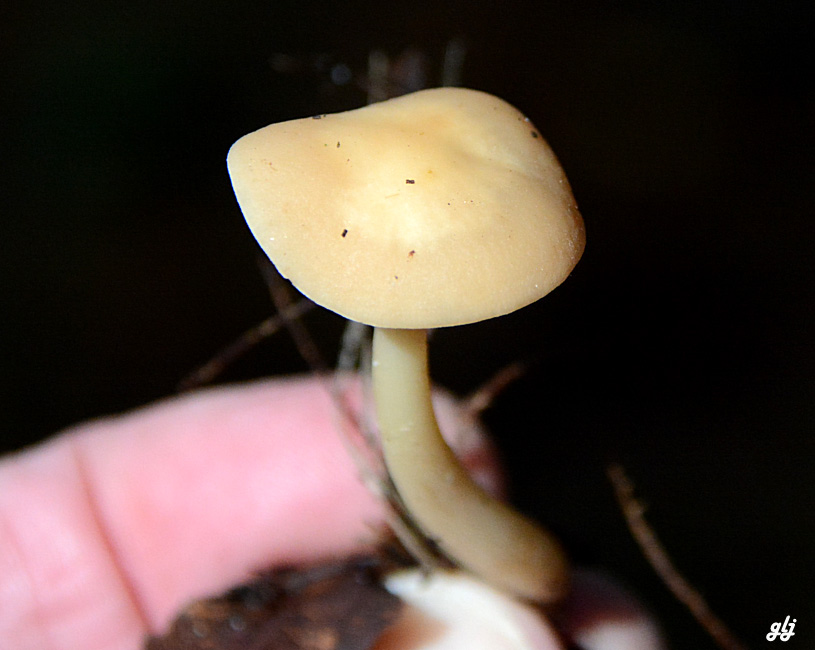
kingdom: Fungi
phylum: Basidiomycota
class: Agaricomycetes
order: Agaricales
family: Omphalotaceae
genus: Gymnopus
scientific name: Gymnopus aquosus
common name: bleg fladhat
